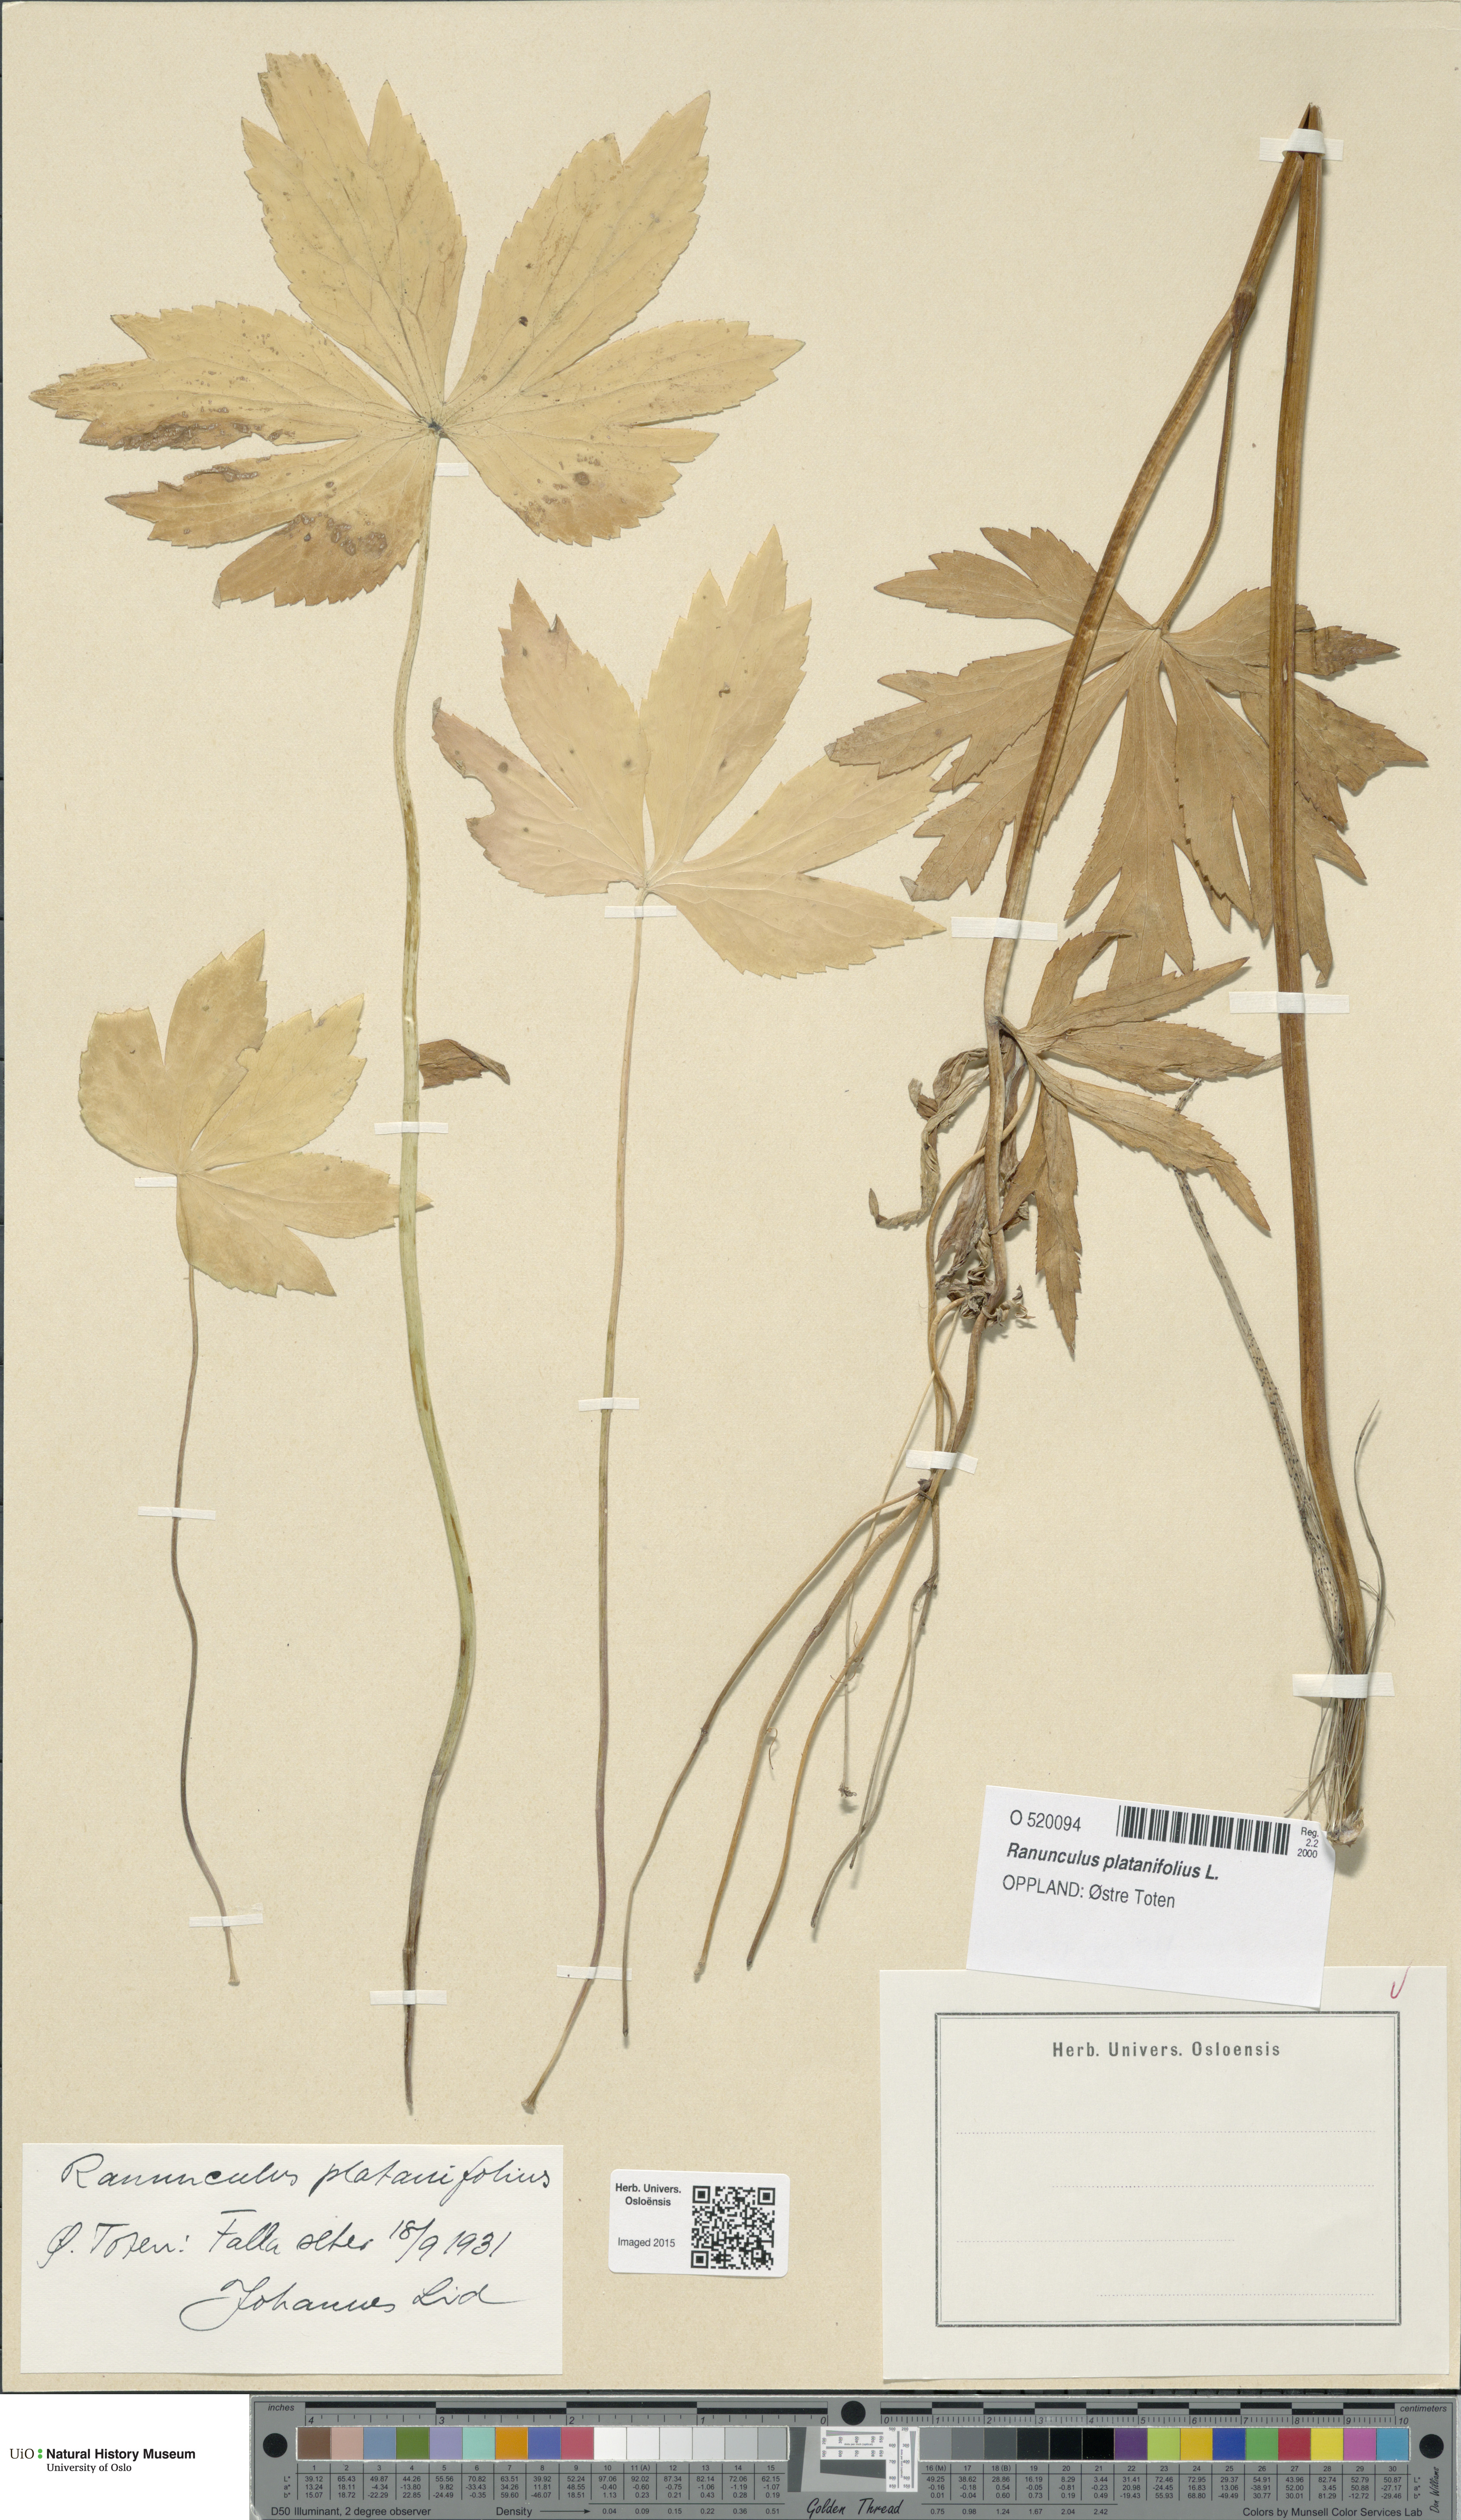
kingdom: Plantae
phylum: Tracheophyta
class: Magnoliopsida
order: Ranunculales
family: Ranunculaceae
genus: Ranunculus
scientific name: Ranunculus platanifolius
